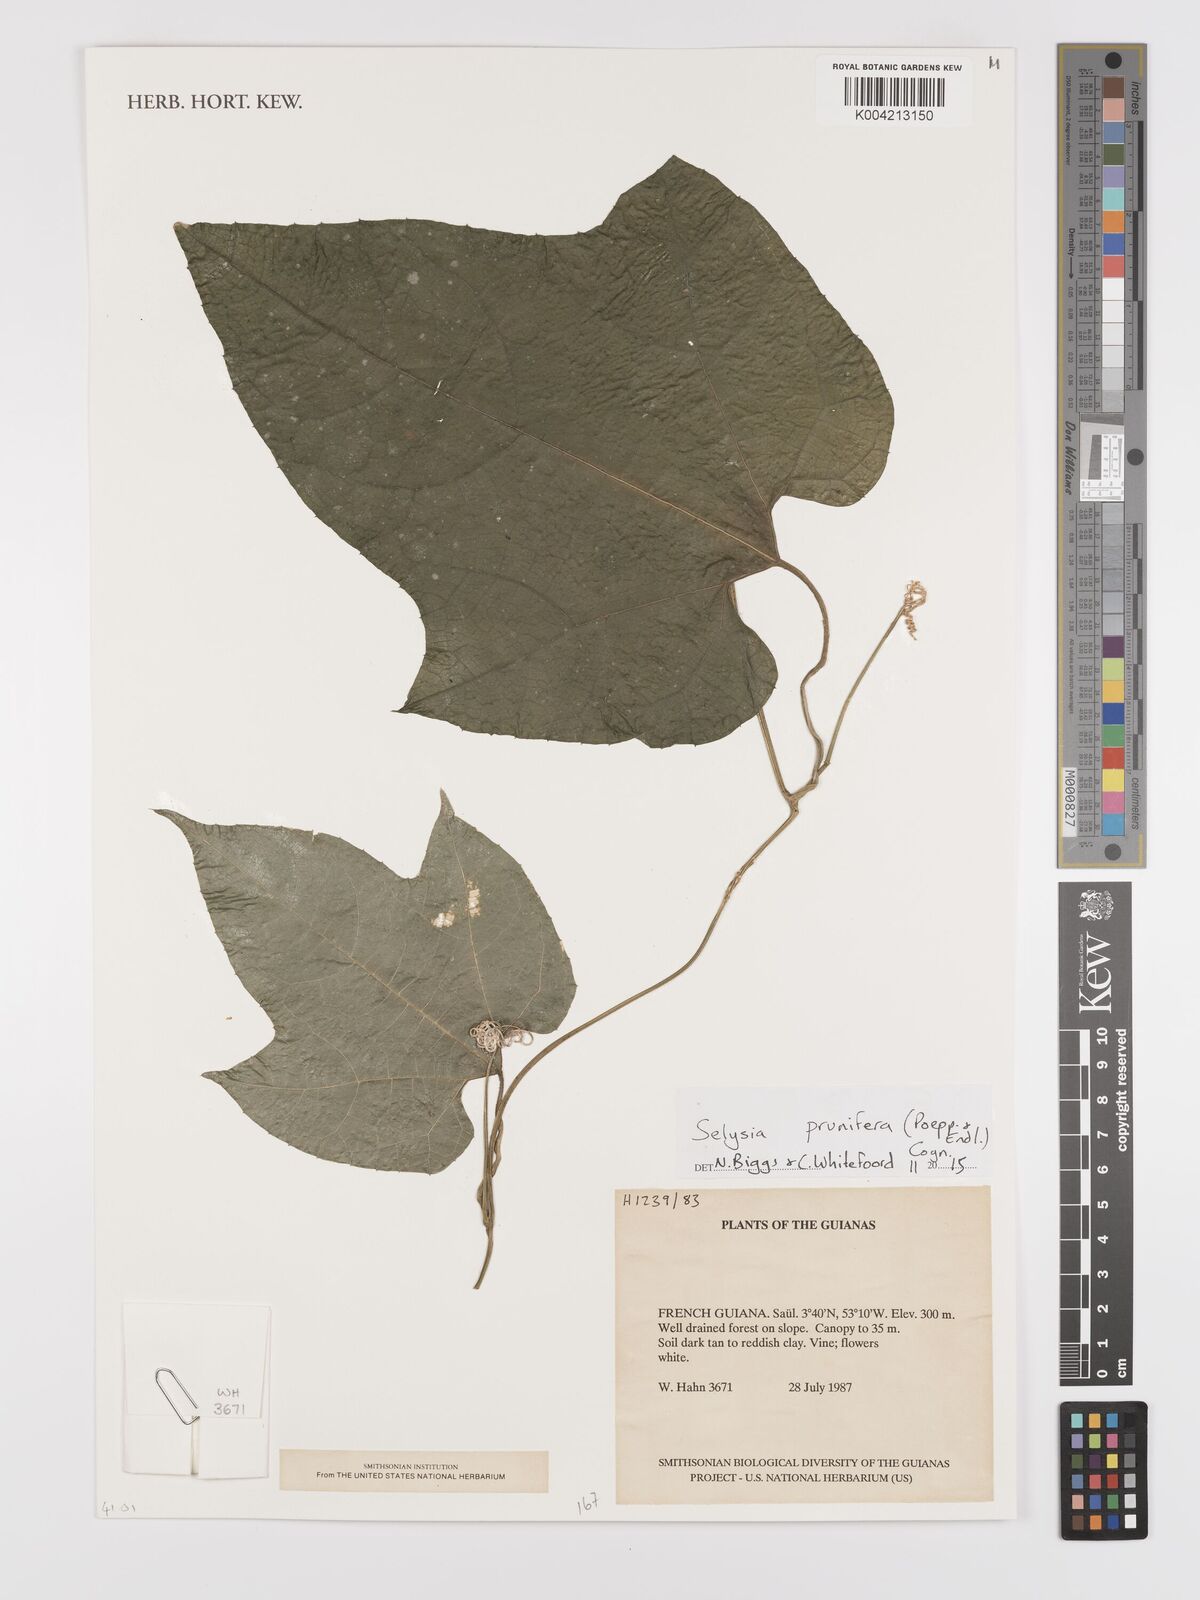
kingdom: Plantae
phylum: Tracheophyta
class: Magnoliopsida
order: Cucurbitales
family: Cucurbitaceae
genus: Cayaponia
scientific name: Cayaponia prunifera
